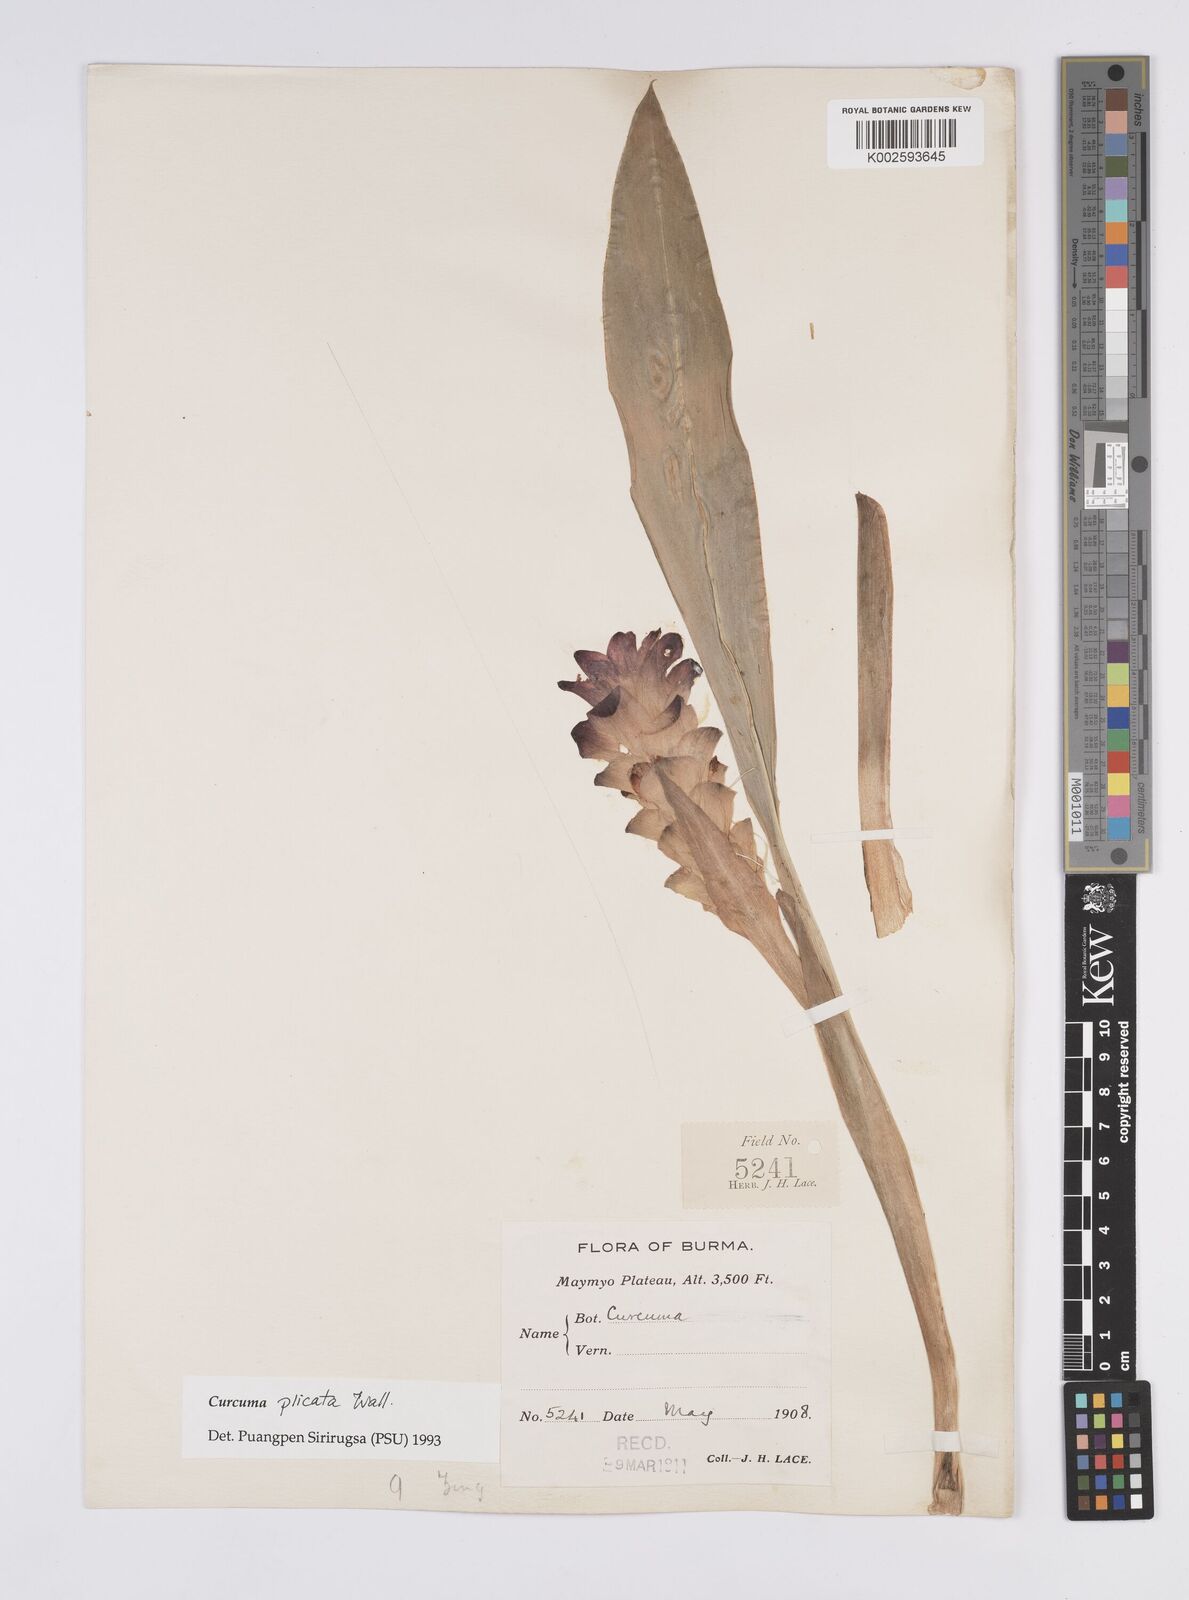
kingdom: Plantae
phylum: Tracheophyta
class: Liliopsida
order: Zingiberales
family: Zingiberaceae
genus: Curcuma
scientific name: Curcuma plicata
